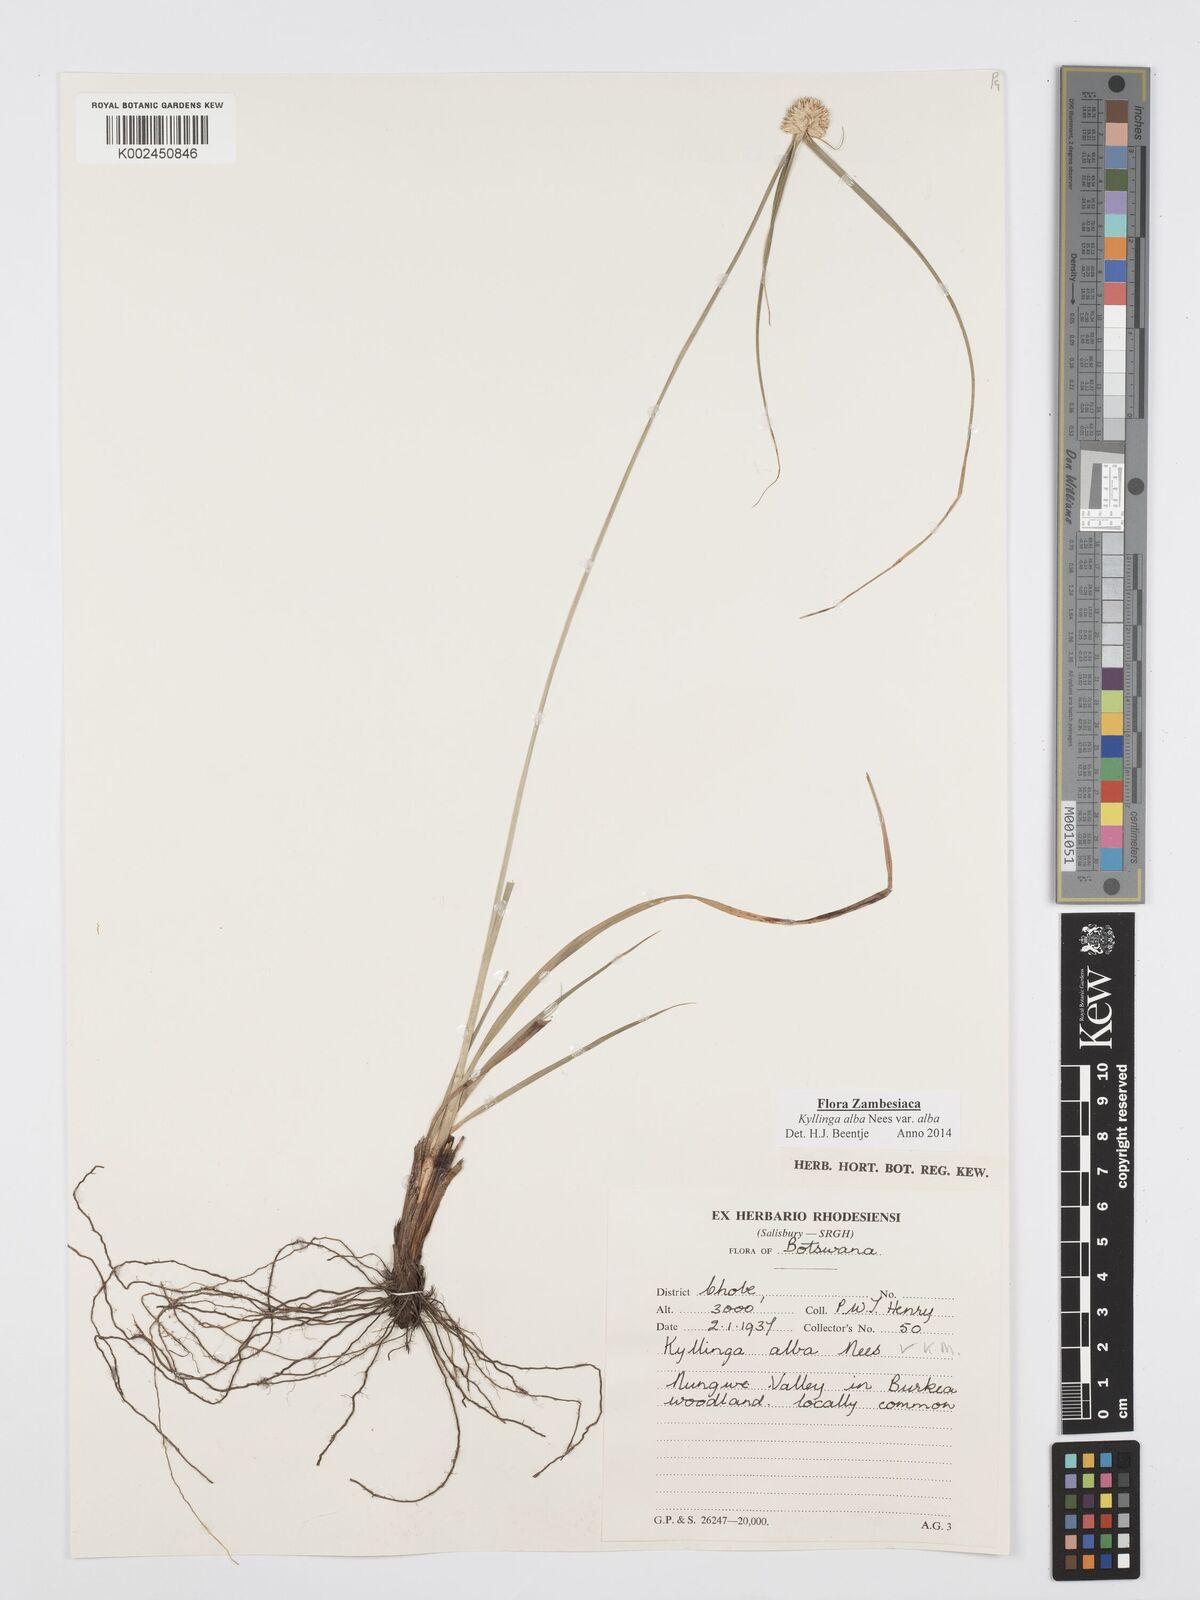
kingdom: Plantae
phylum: Tracheophyta
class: Liliopsida
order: Poales
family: Cyperaceae
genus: Cyperus
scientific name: Cyperus
